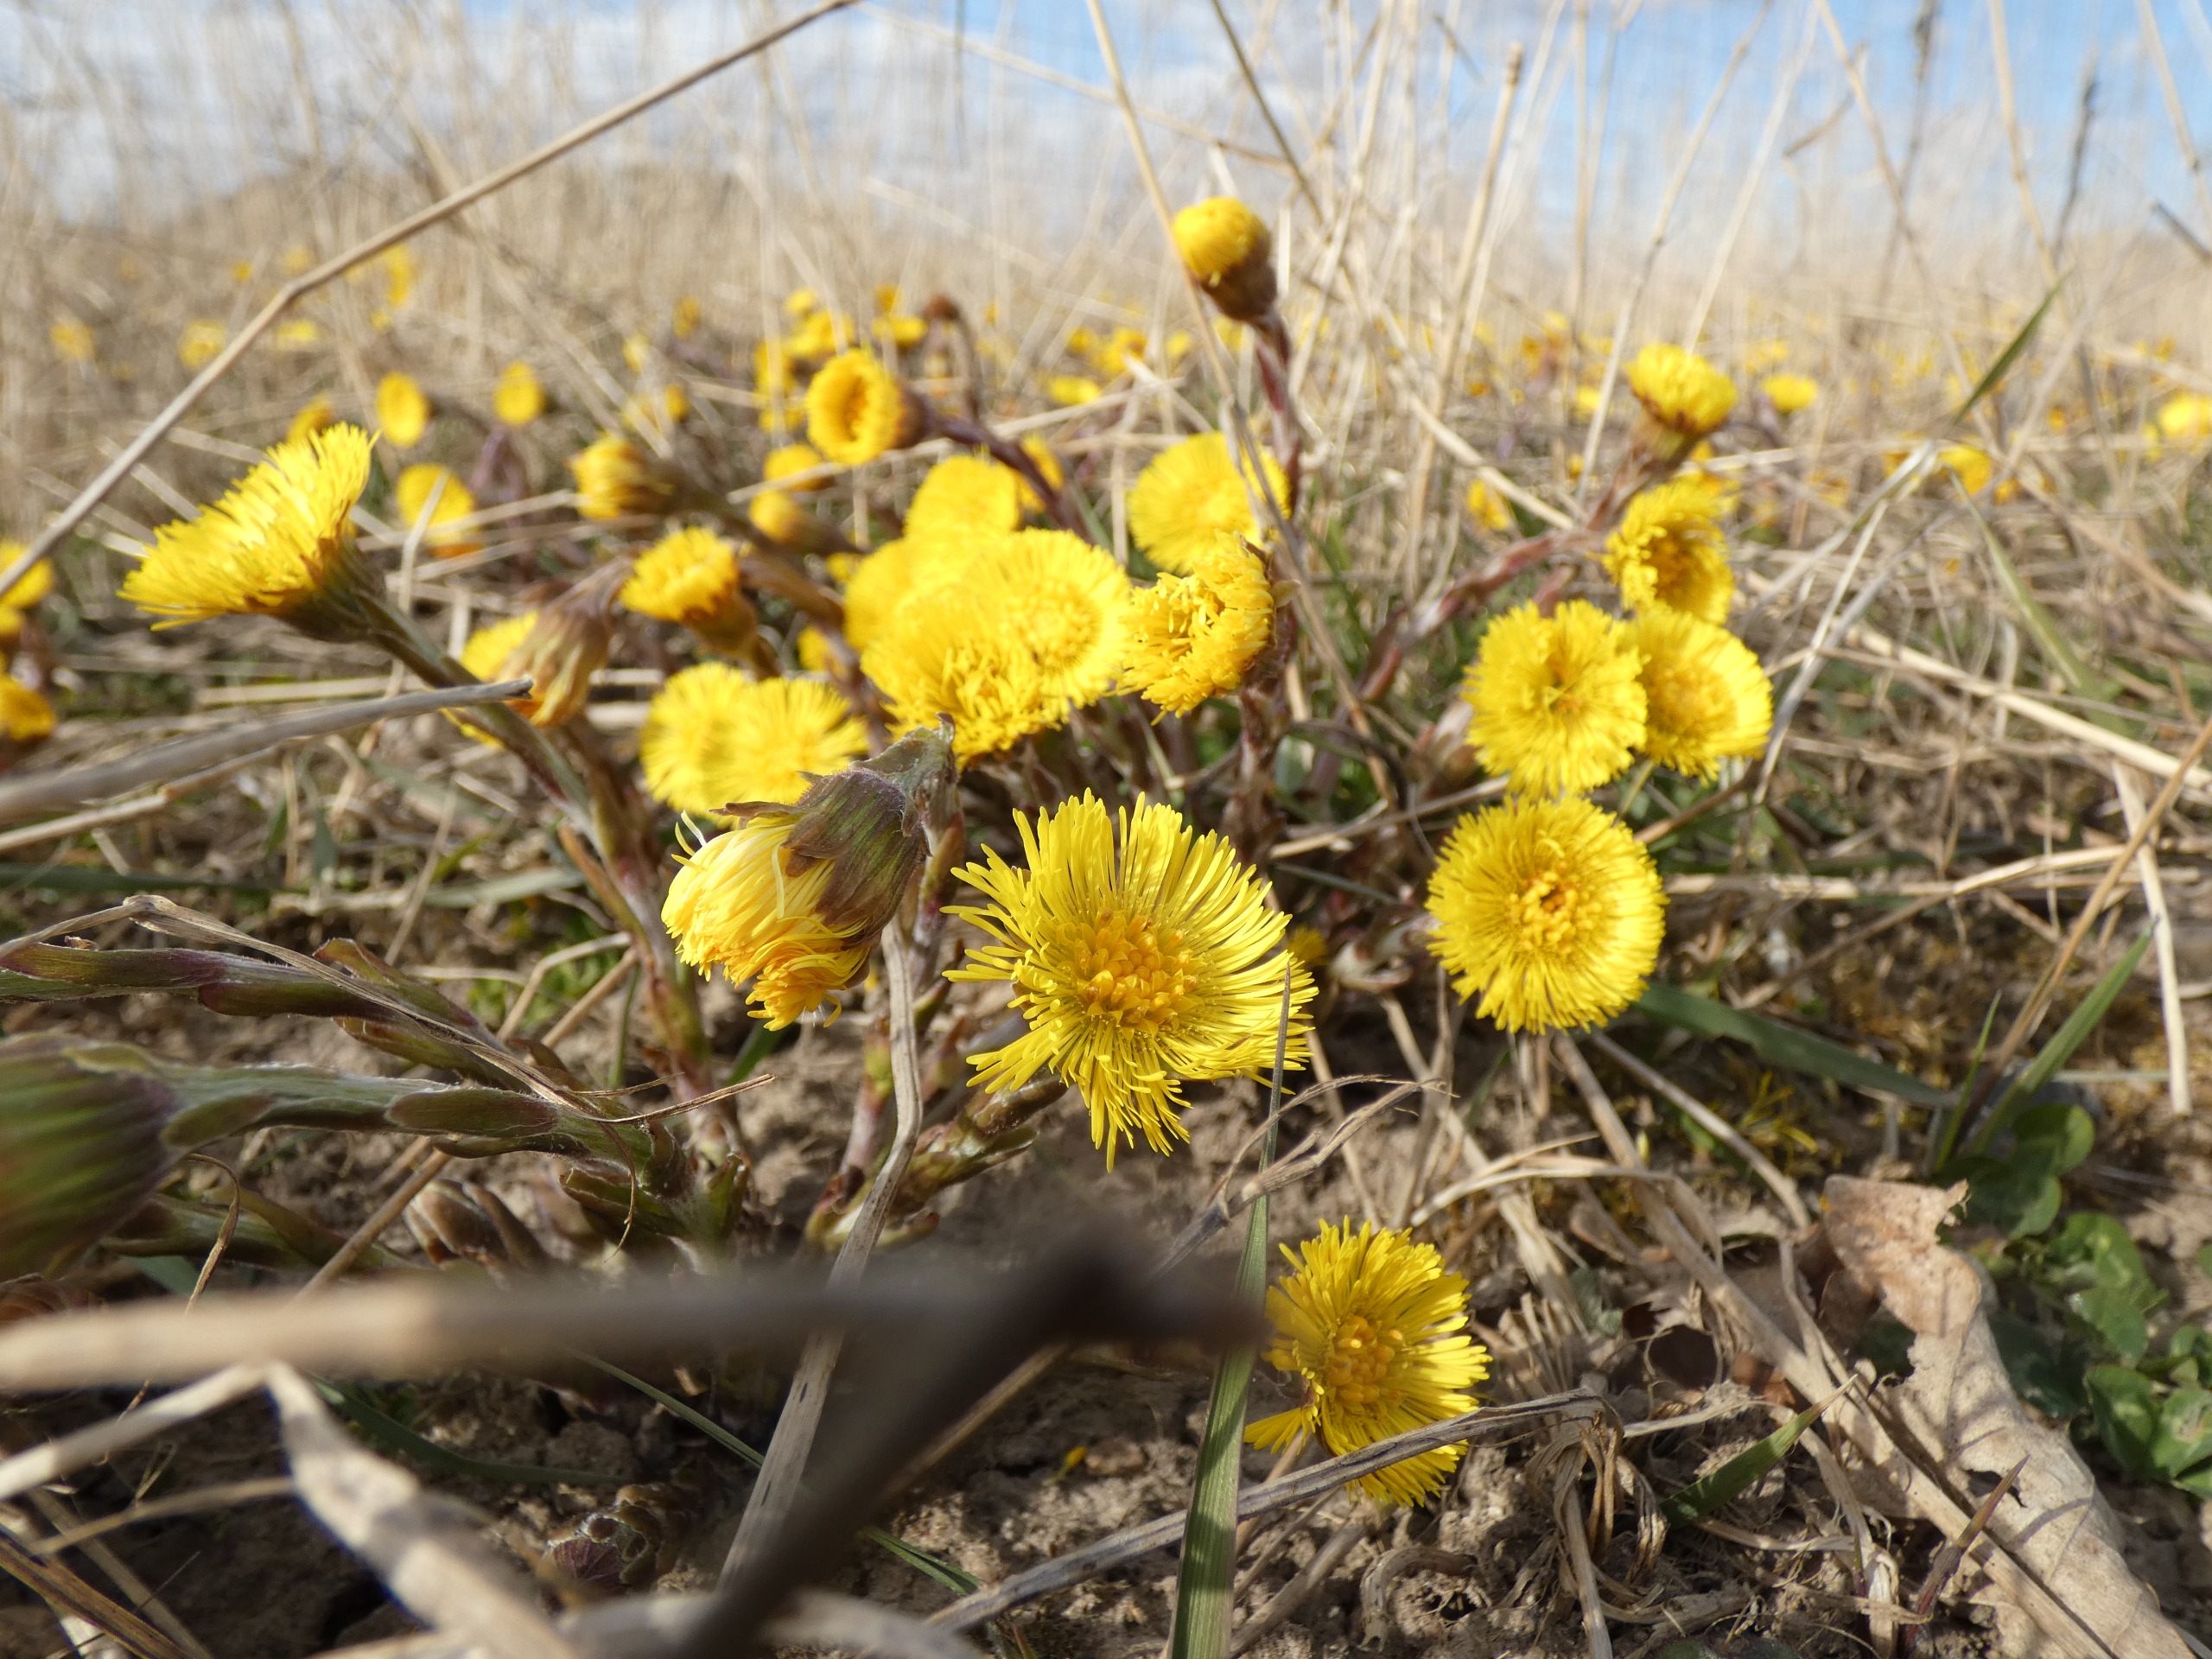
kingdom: Plantae
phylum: Tracheophyta
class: Magnoliopsida
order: Asterales
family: Asteraceae
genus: Tussilago
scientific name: Tussilago farfara
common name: Følfod
